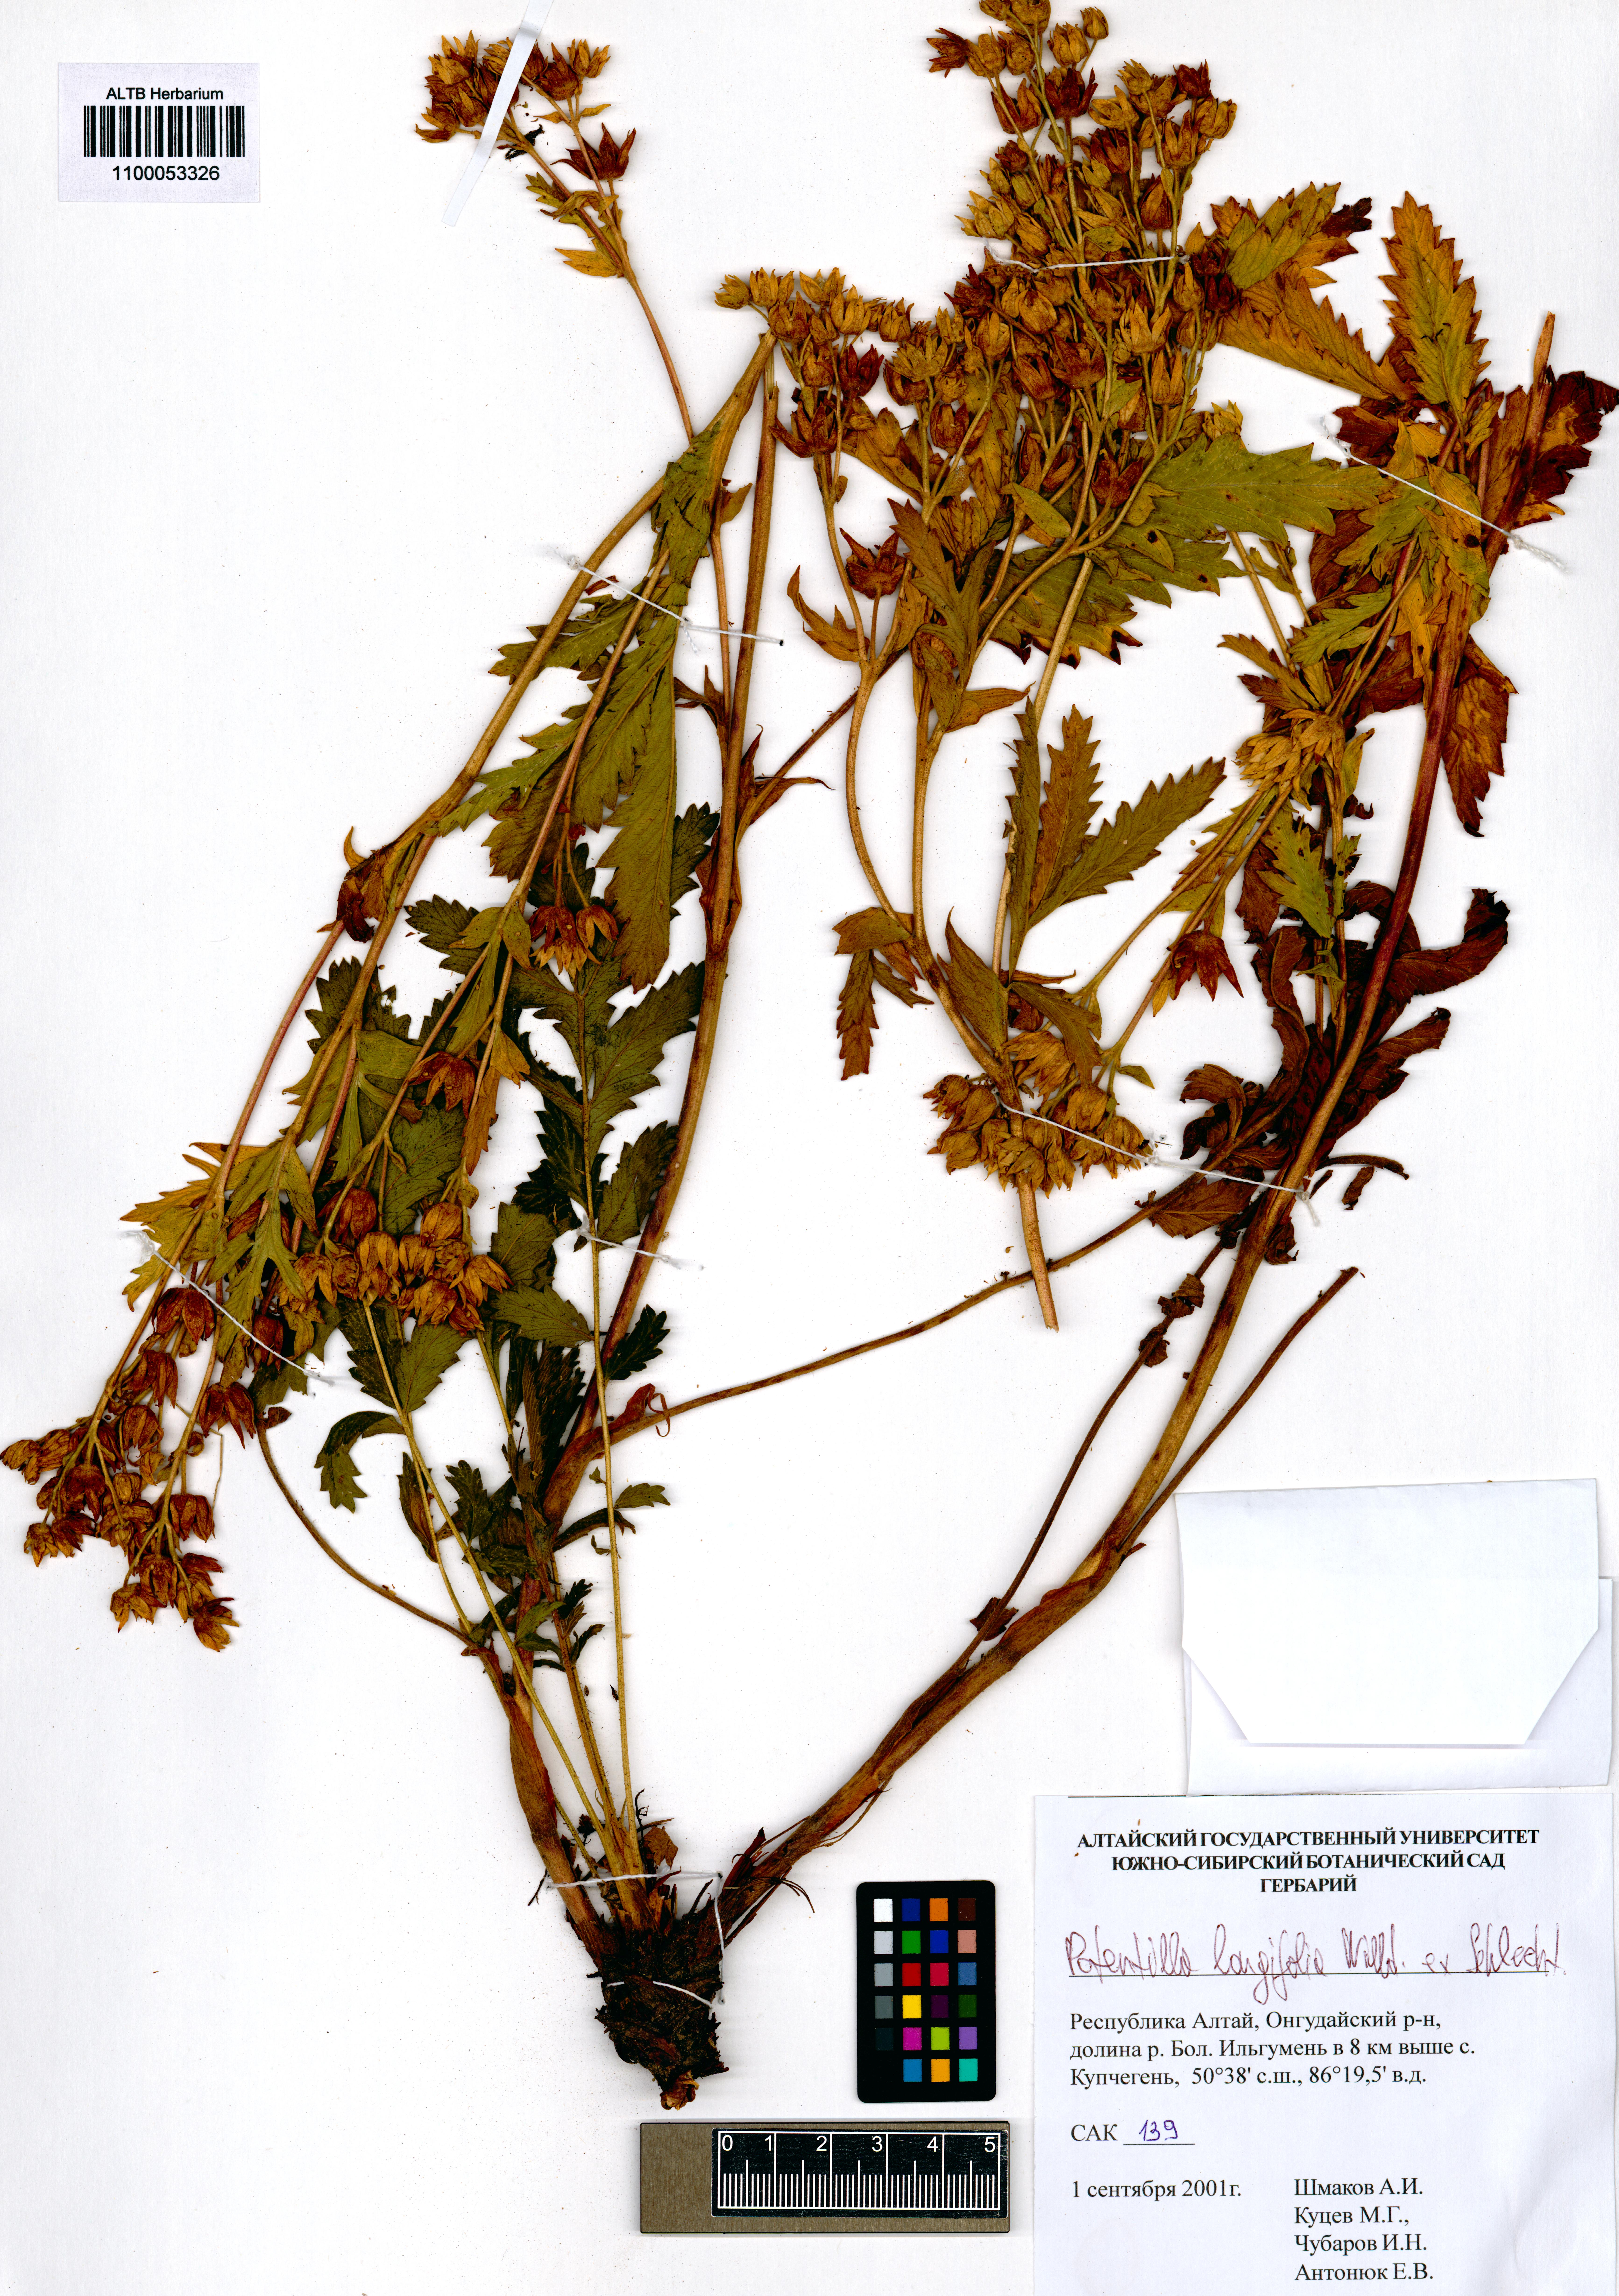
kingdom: Plantae
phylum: Tracheophyta
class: Magnoliopsida
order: Rosales
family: Rosaceae
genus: Potentilla
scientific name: Potentilla longifolia
